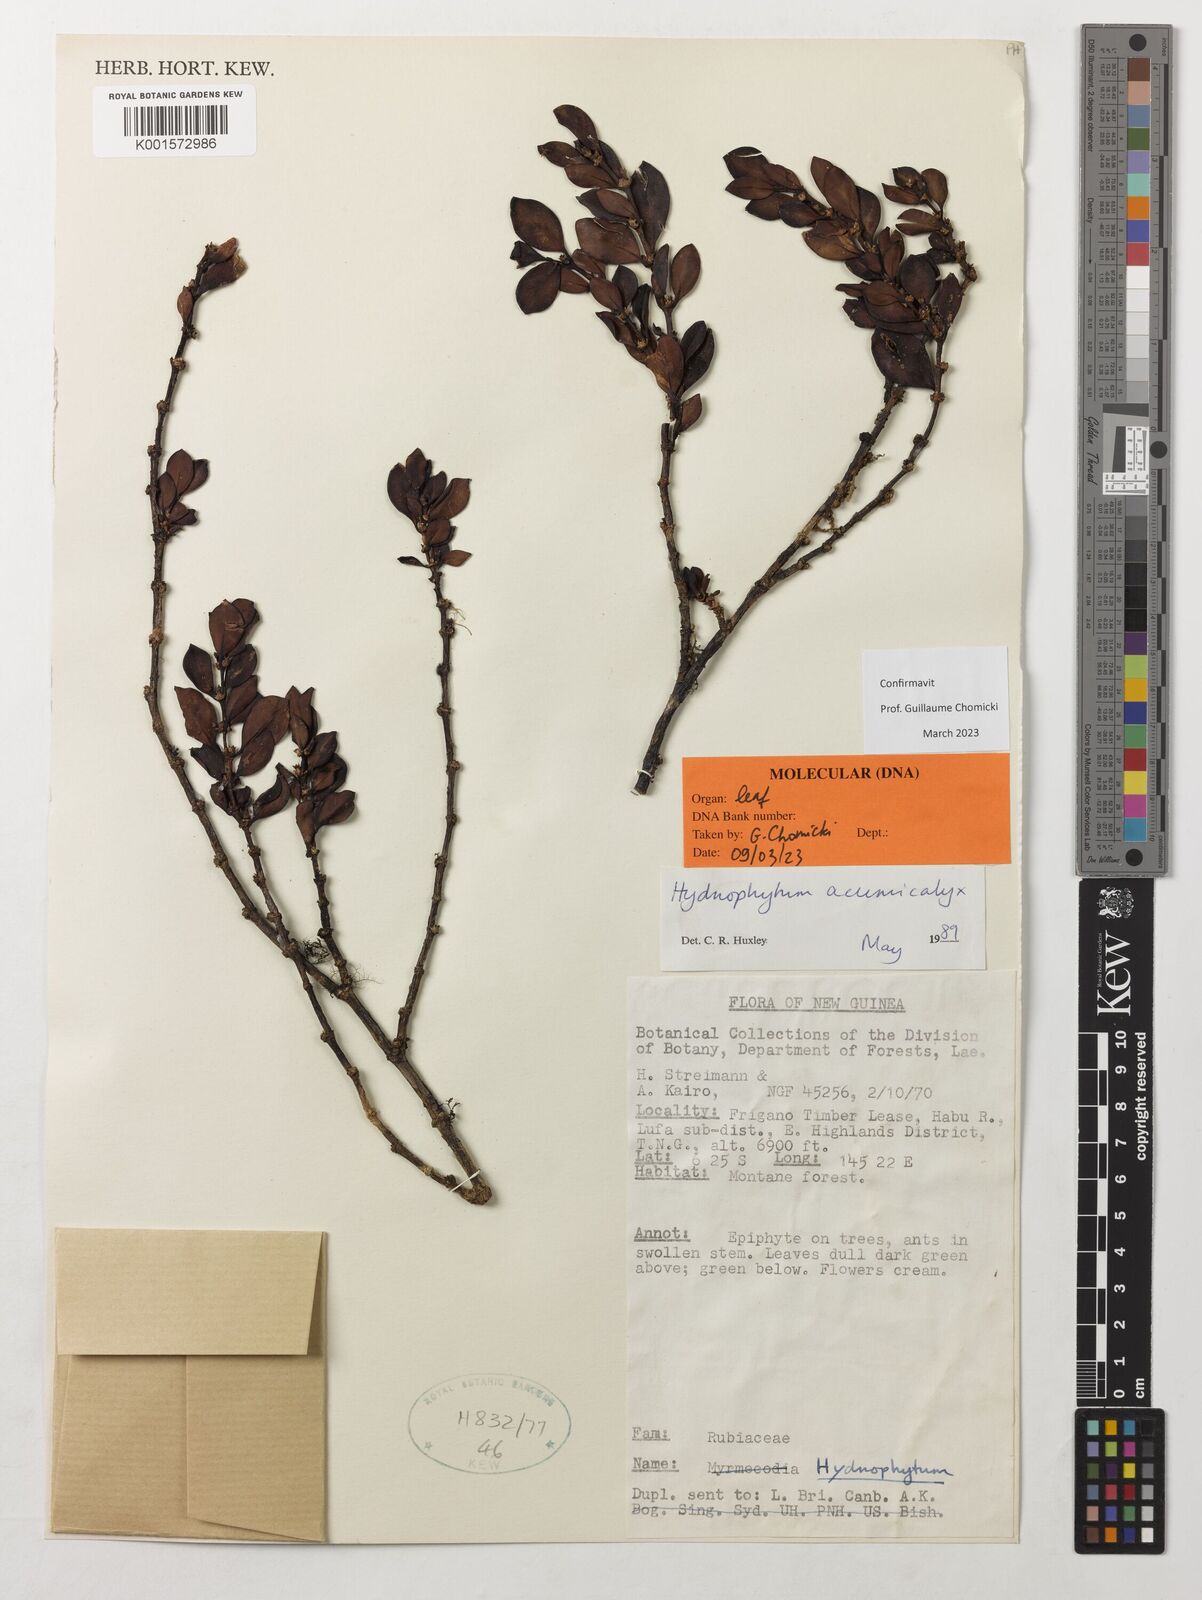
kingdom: Plantae
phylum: Tracheophyta
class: Magnoliopsida
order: Gentianales
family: Rubiaceae
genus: Hydnophytum
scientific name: Hydnophytum acuminicalyx
